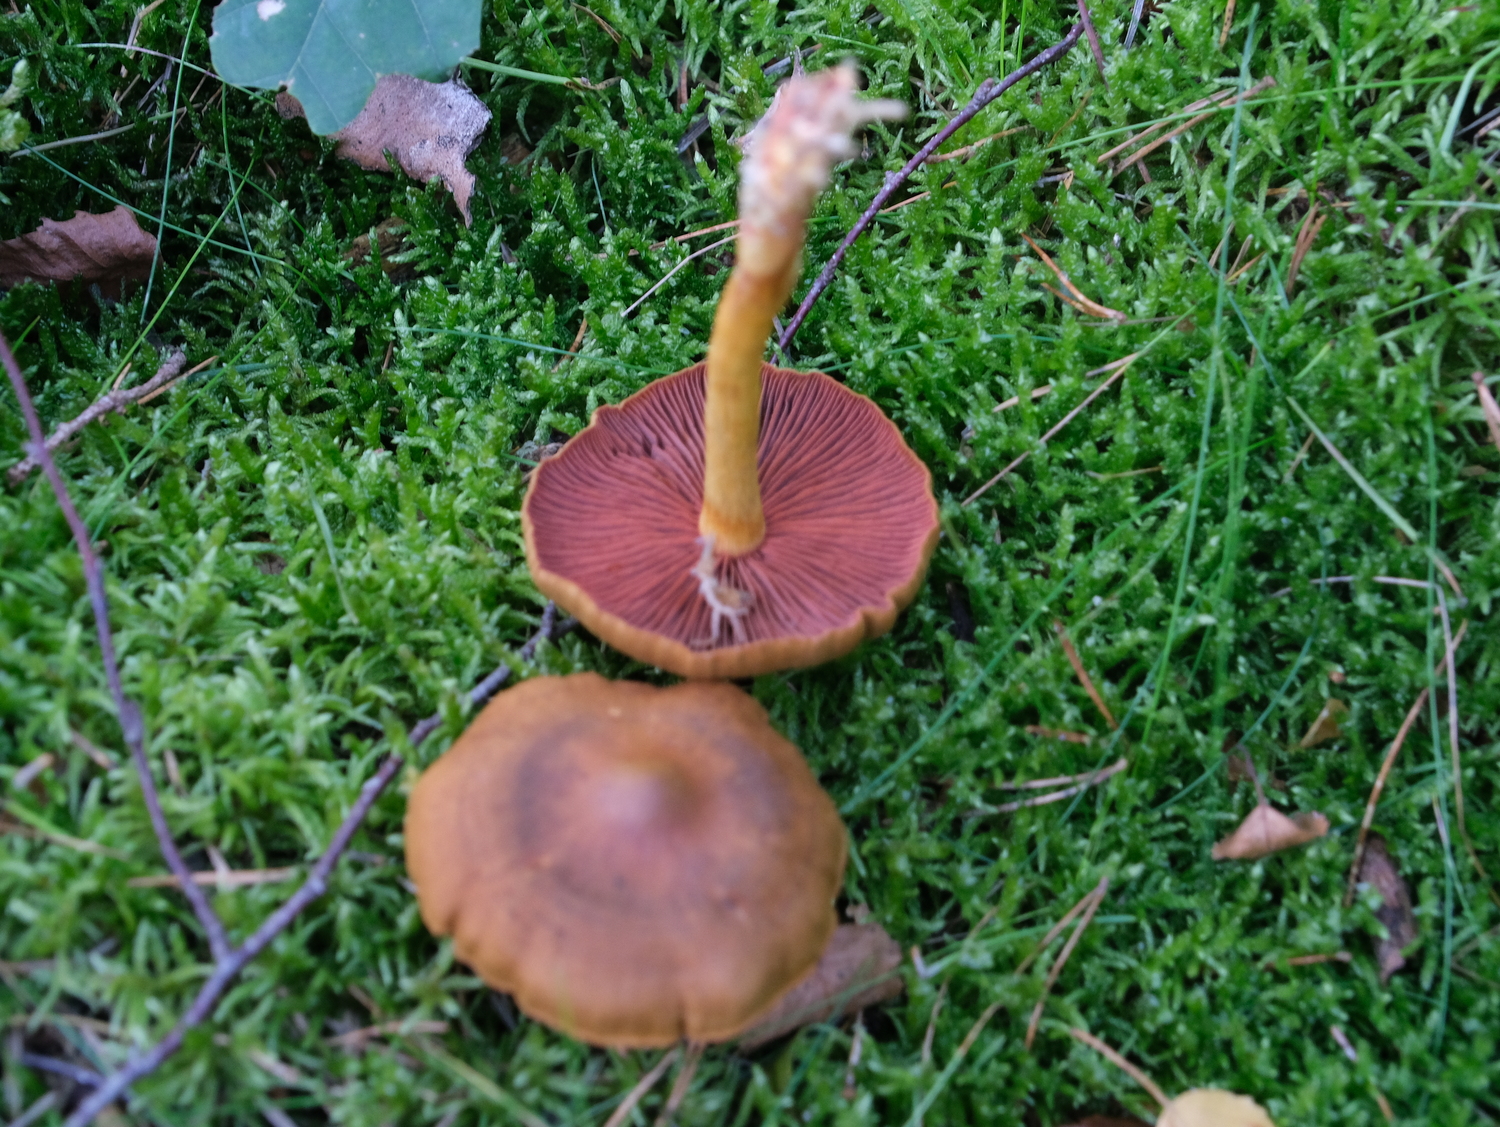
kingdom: Fungi
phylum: Basidiomycota
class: Agaricomycetes
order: Agaricales
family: Cortinariaceae
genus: Cortinarius
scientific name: Cortinarius
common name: cinnoberbladet slørhat
